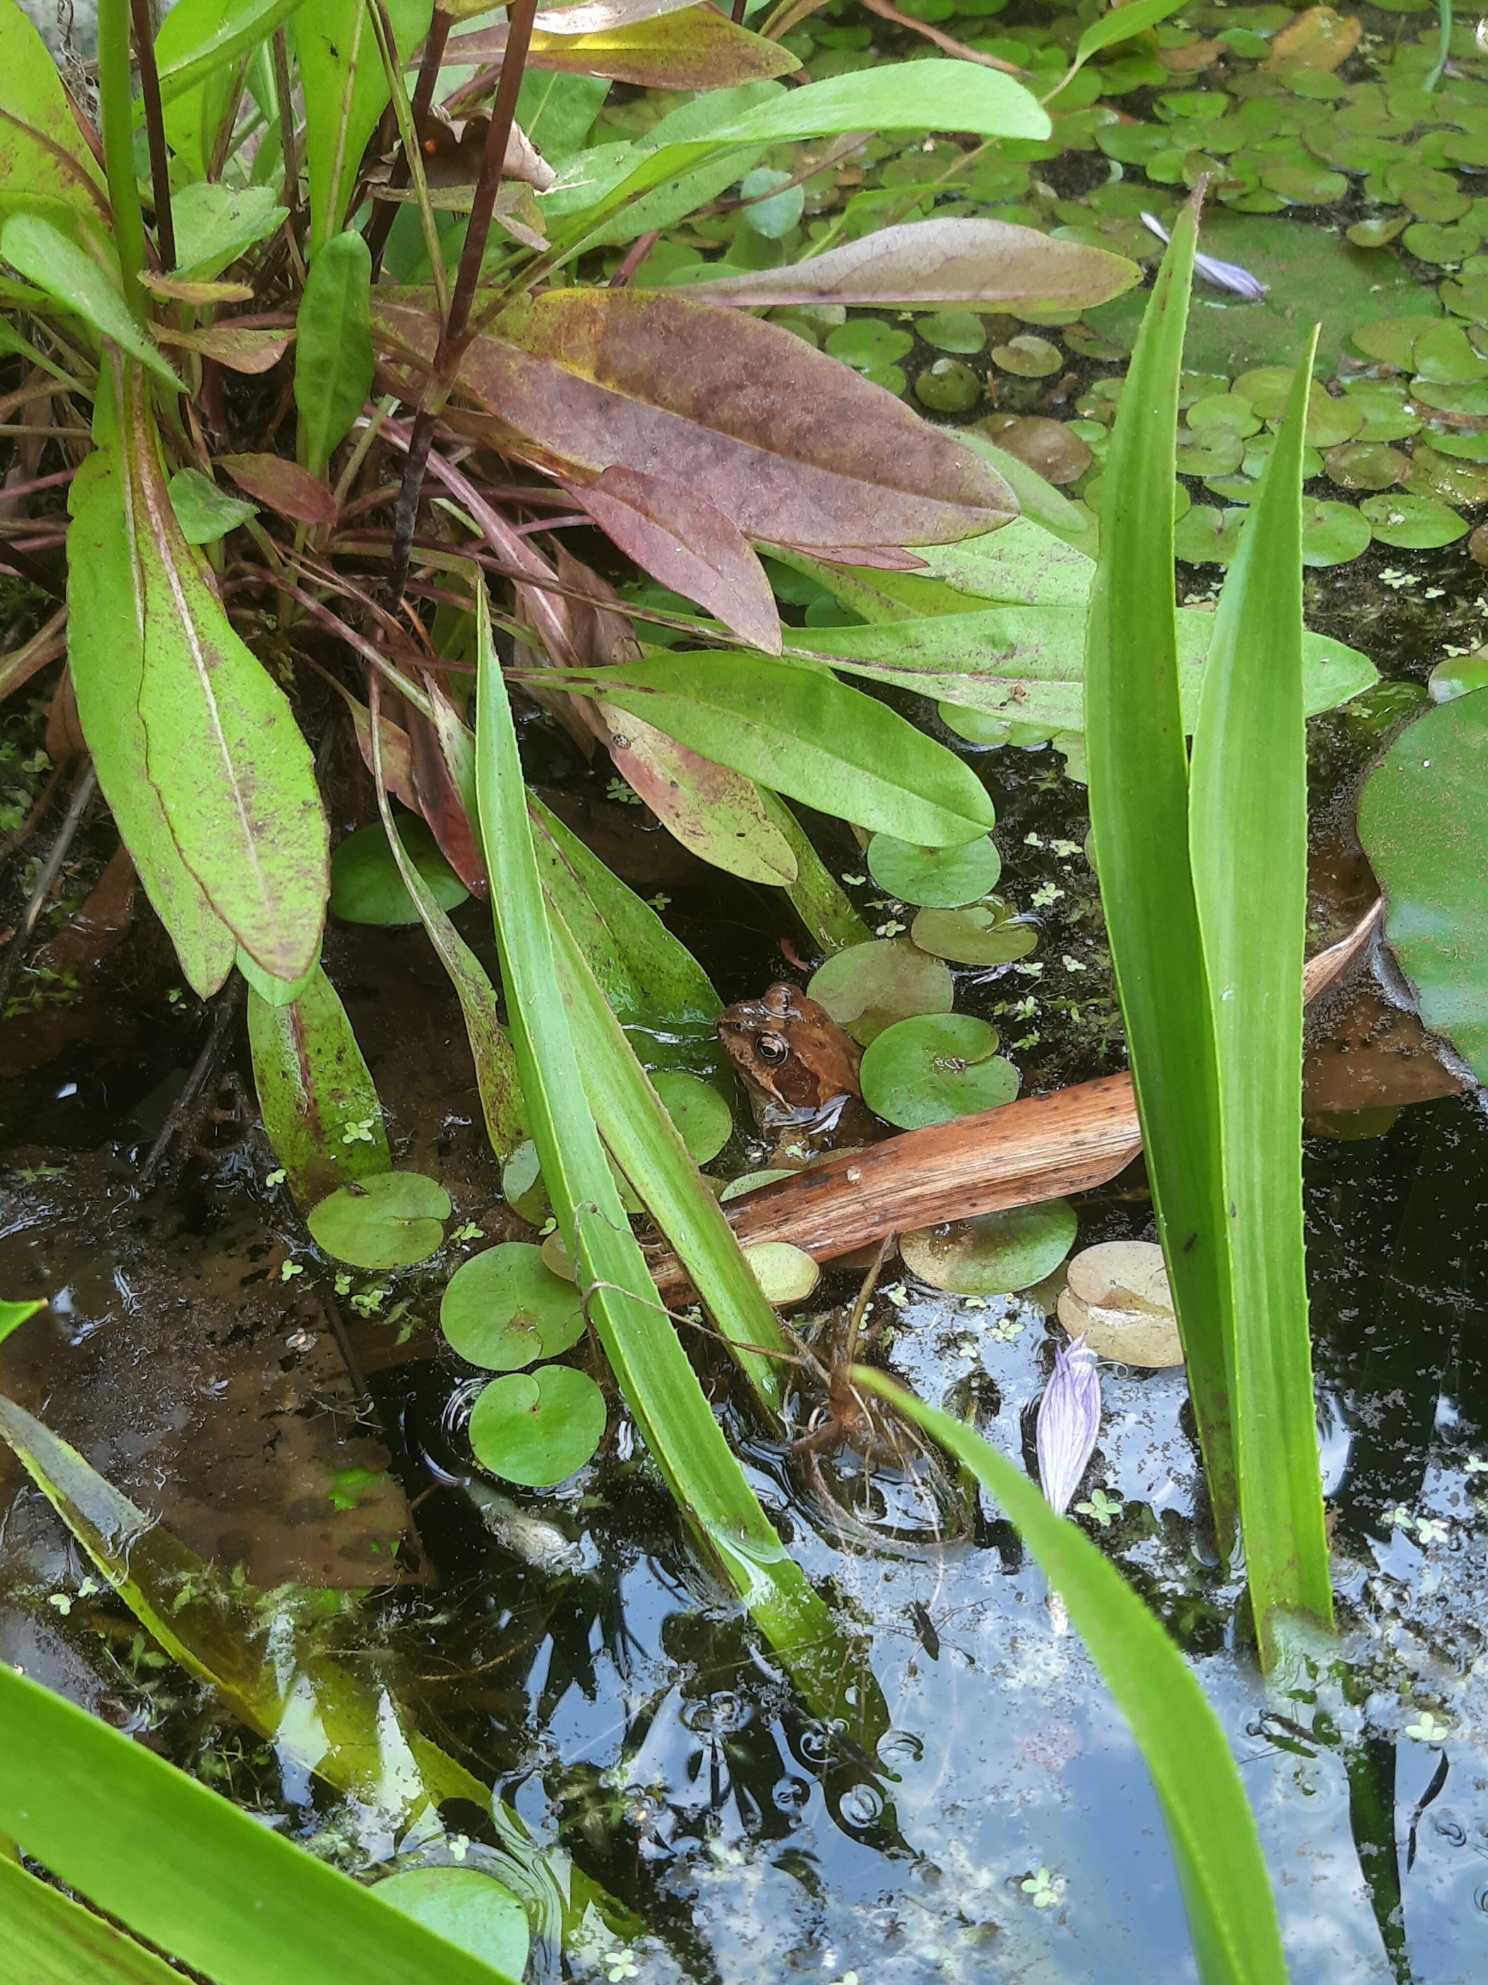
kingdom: Animalia
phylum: Chordata
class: Amphibia
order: Anura
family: Ranidae
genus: Rana
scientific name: Rana temporaria
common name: Butsnudet frø
